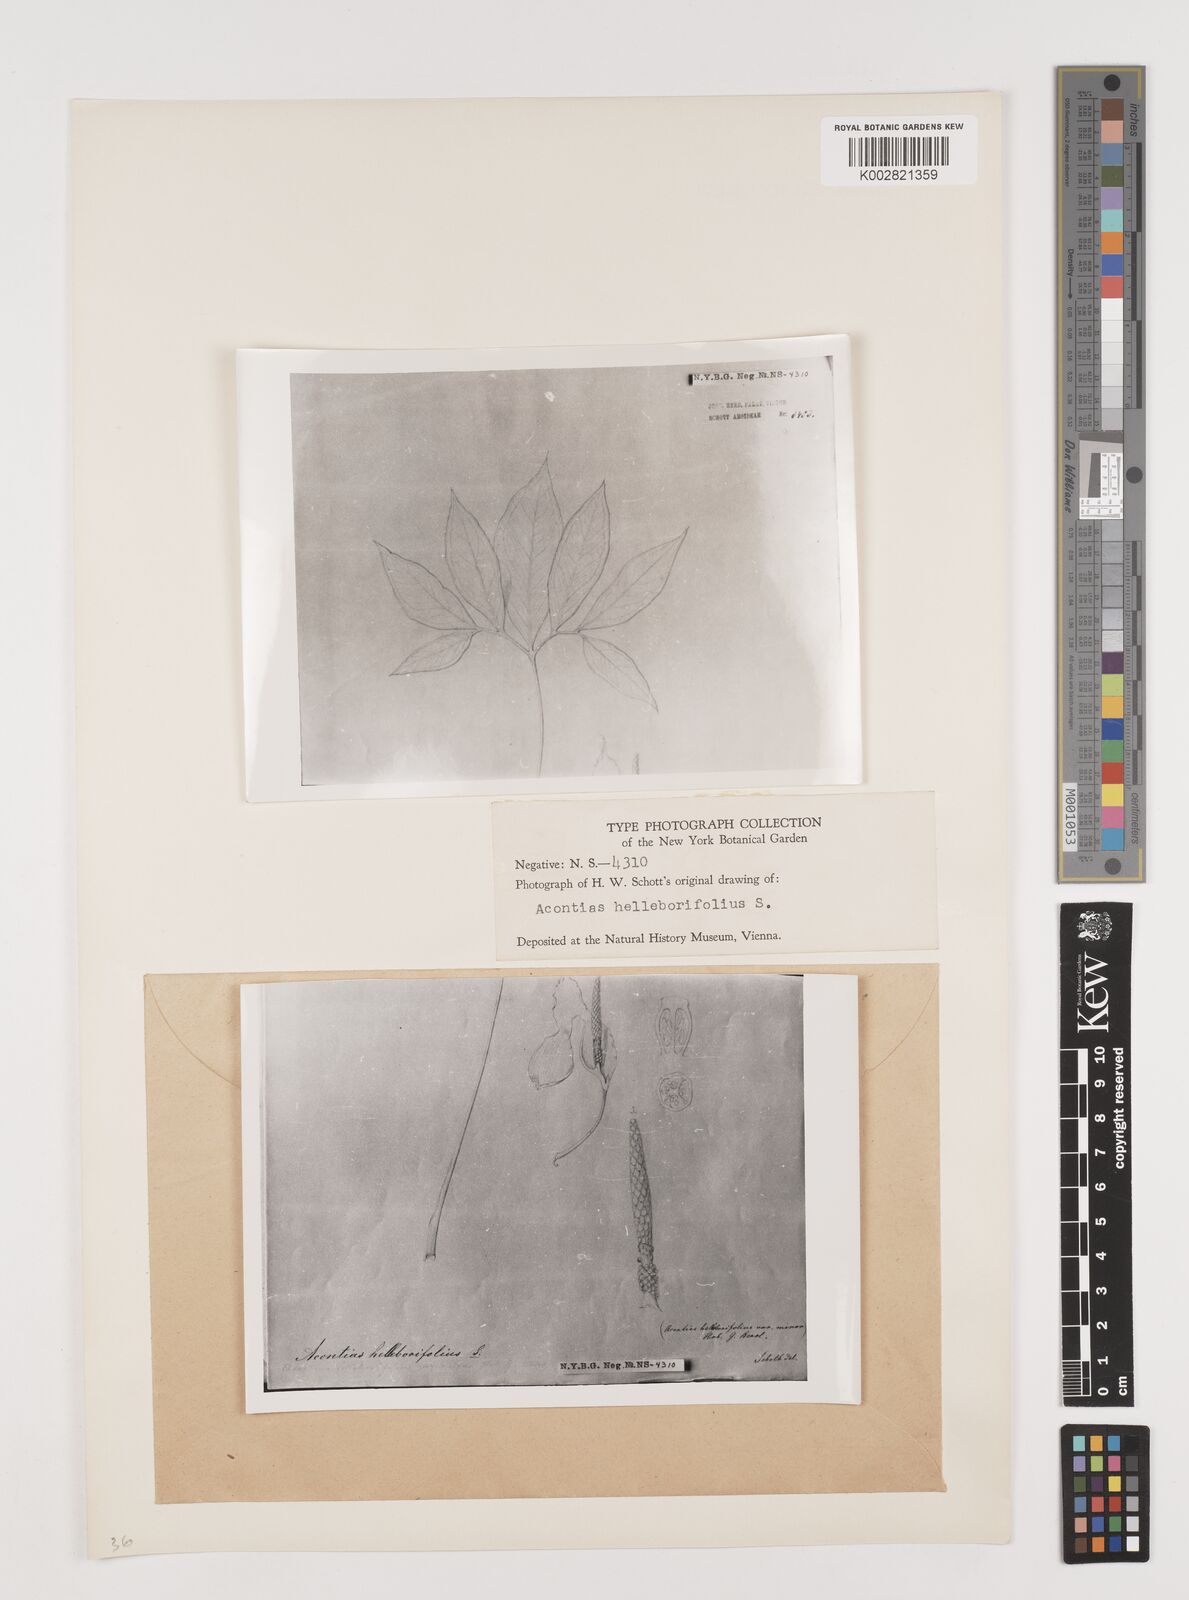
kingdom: Plantae
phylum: Tracheophyta
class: Liliopsida
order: Alismatales
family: Araceae
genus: Xanthosoma
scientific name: Xanthosoma helleborifolium
